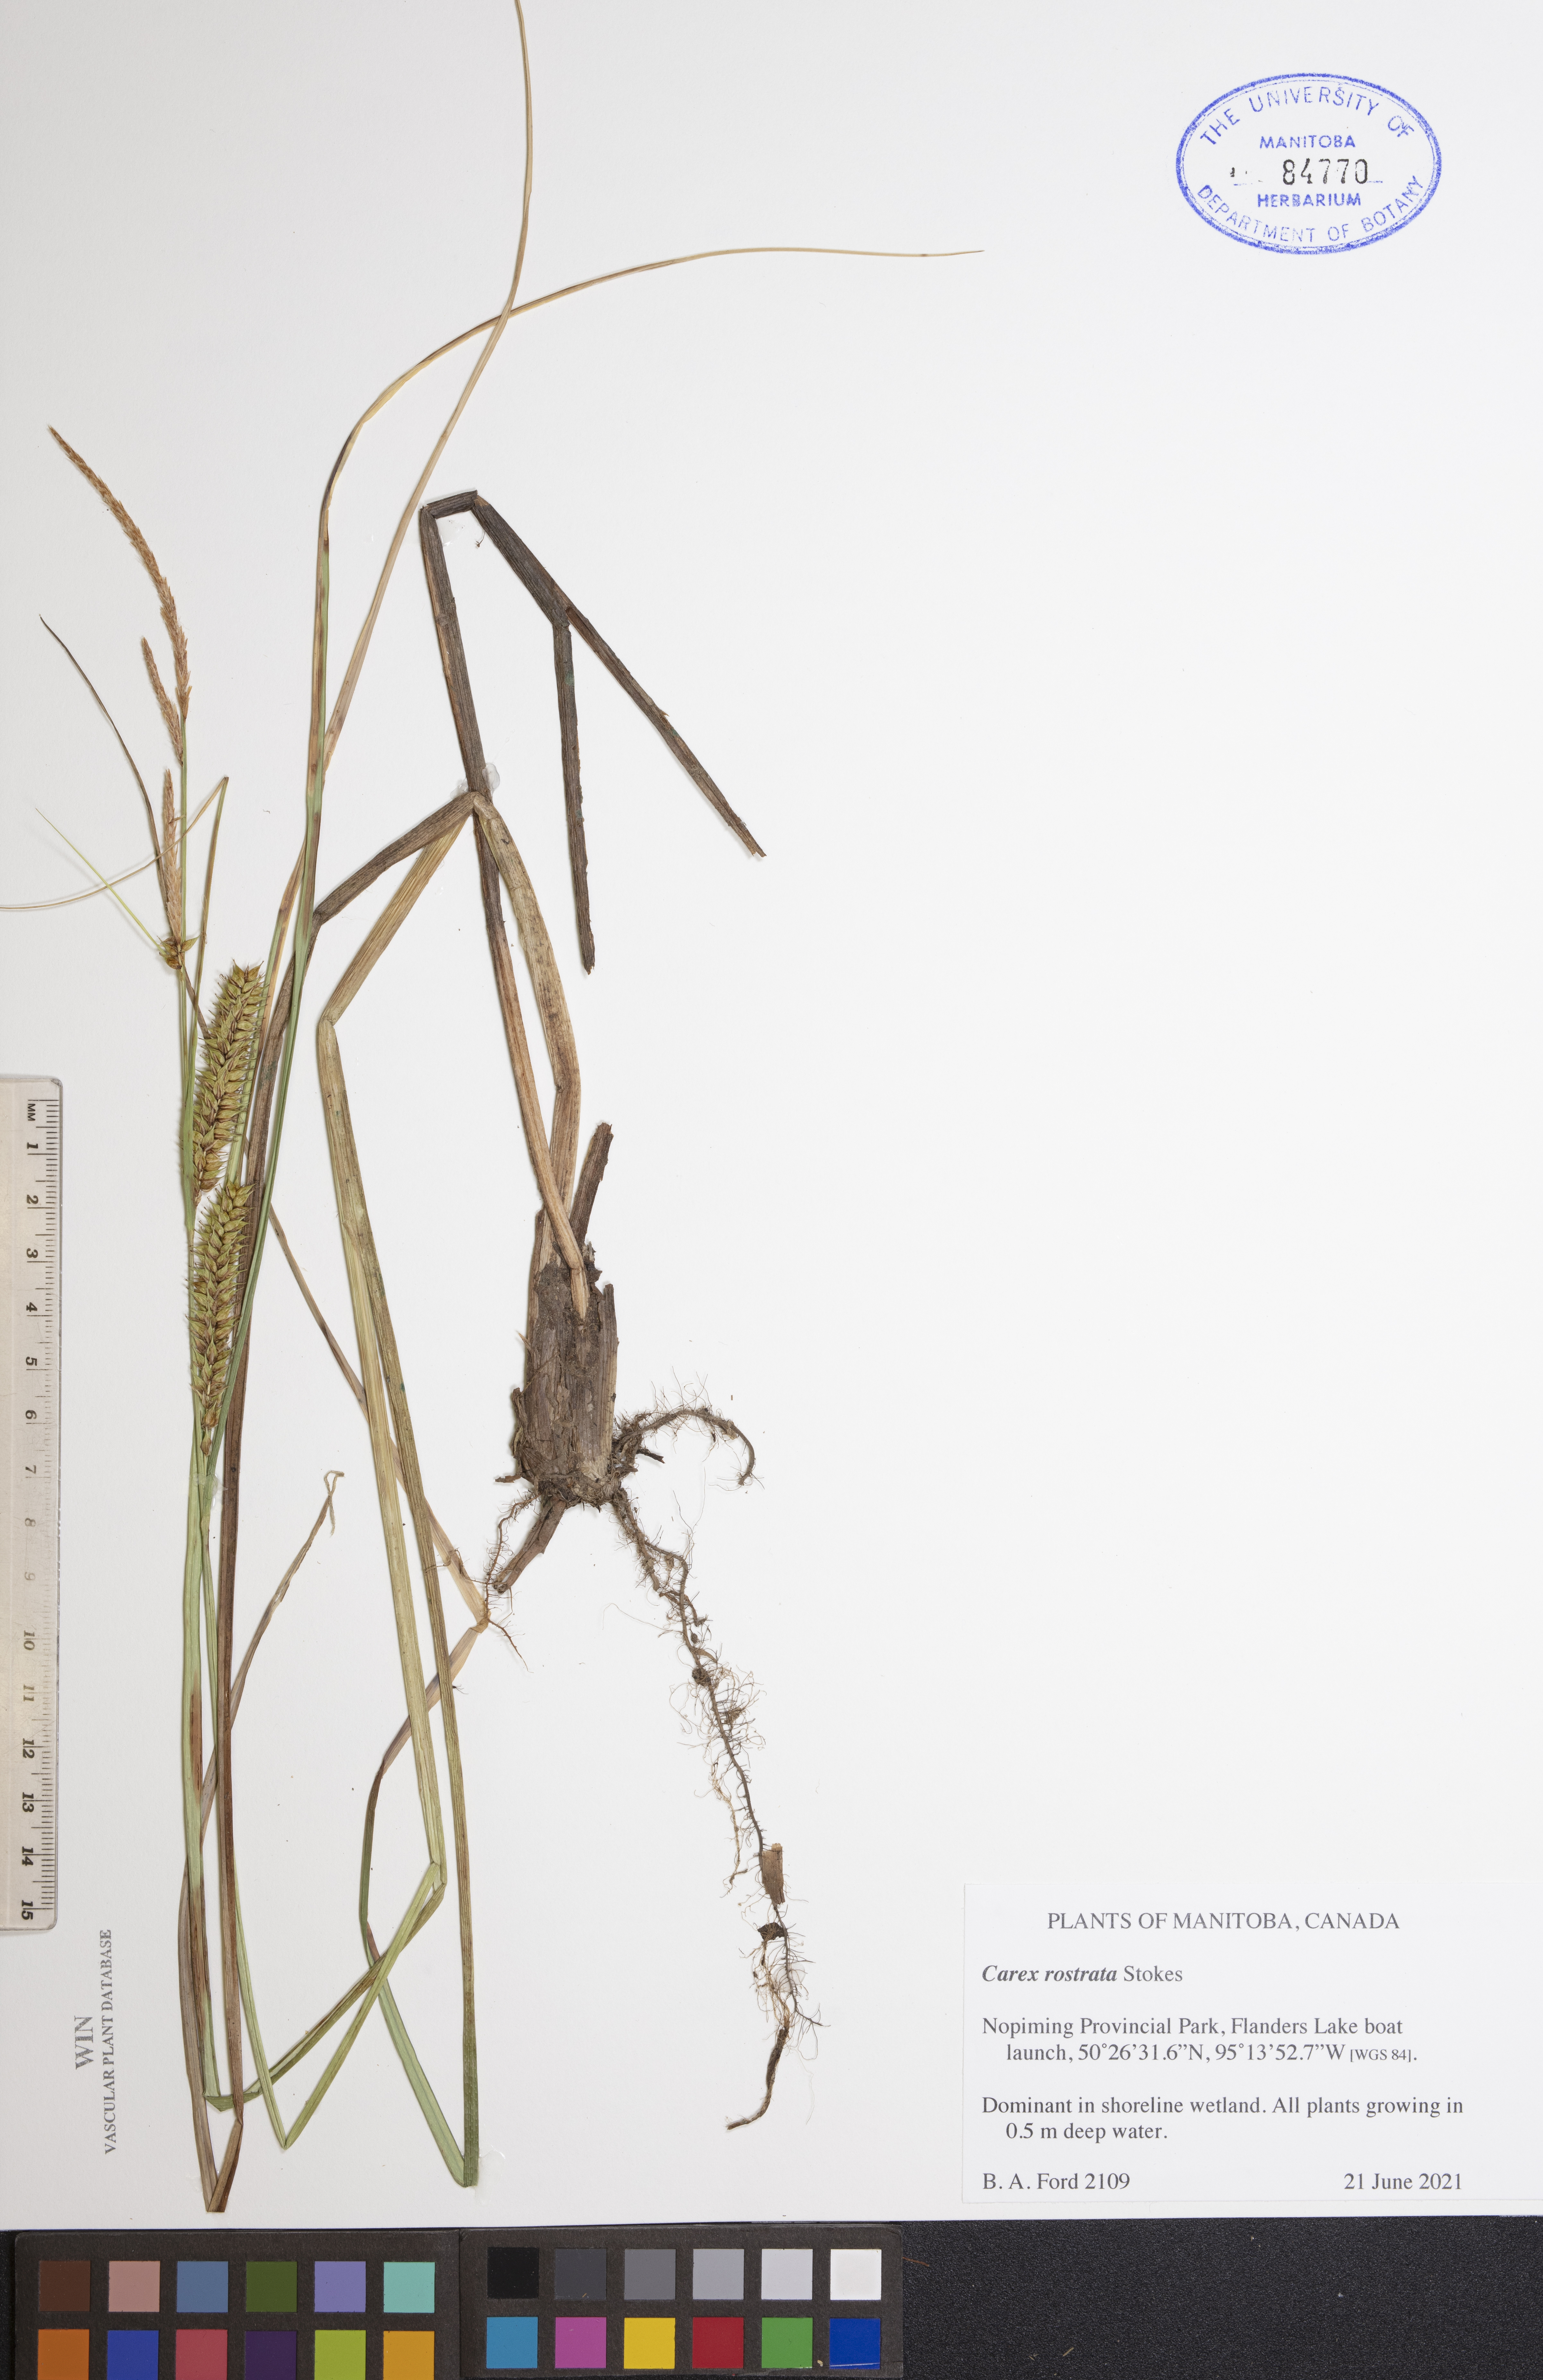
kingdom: Plantae
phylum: Tracheophyta
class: Liliopsida
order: Poales
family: Cyperaceae
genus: Carex
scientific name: Carex rostrata
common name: Bottle sedge
